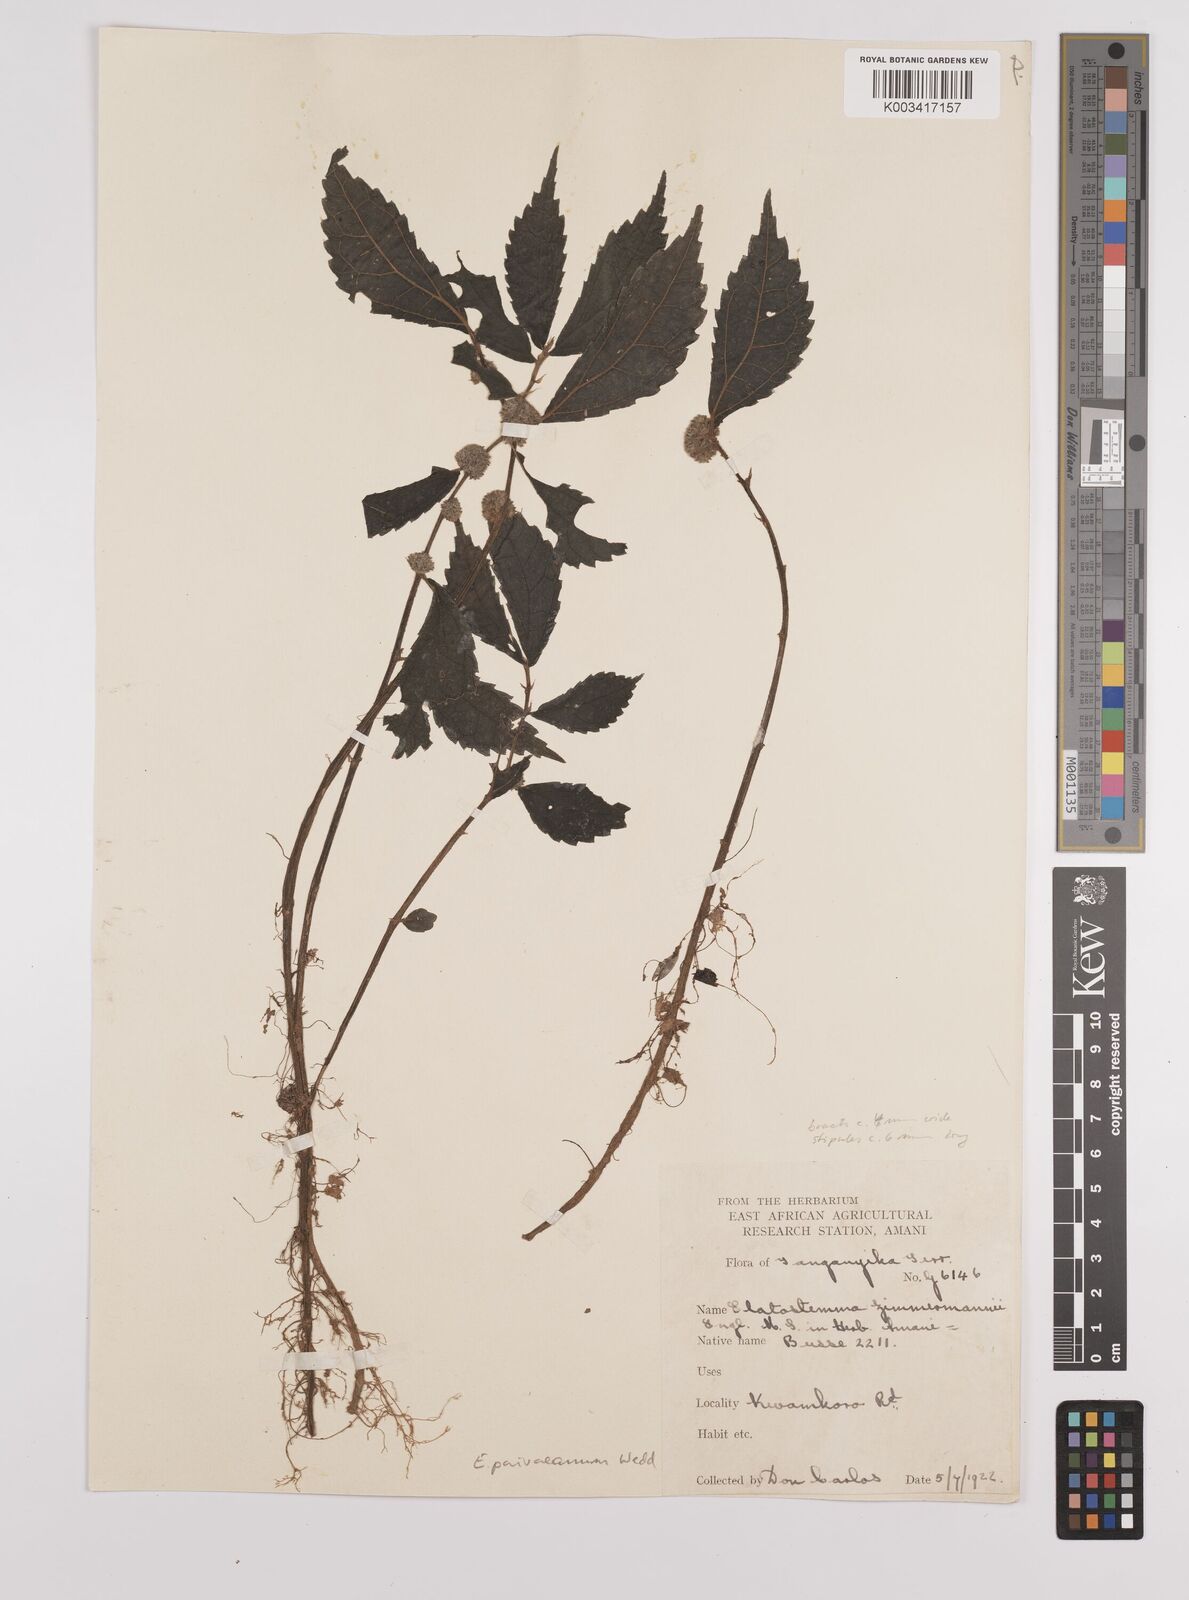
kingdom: Plantae
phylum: Tracheophyta
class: Magnoliopsida
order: Rosales
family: Urticaceae
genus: Elatostema
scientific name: Elatostema paivaeanum
